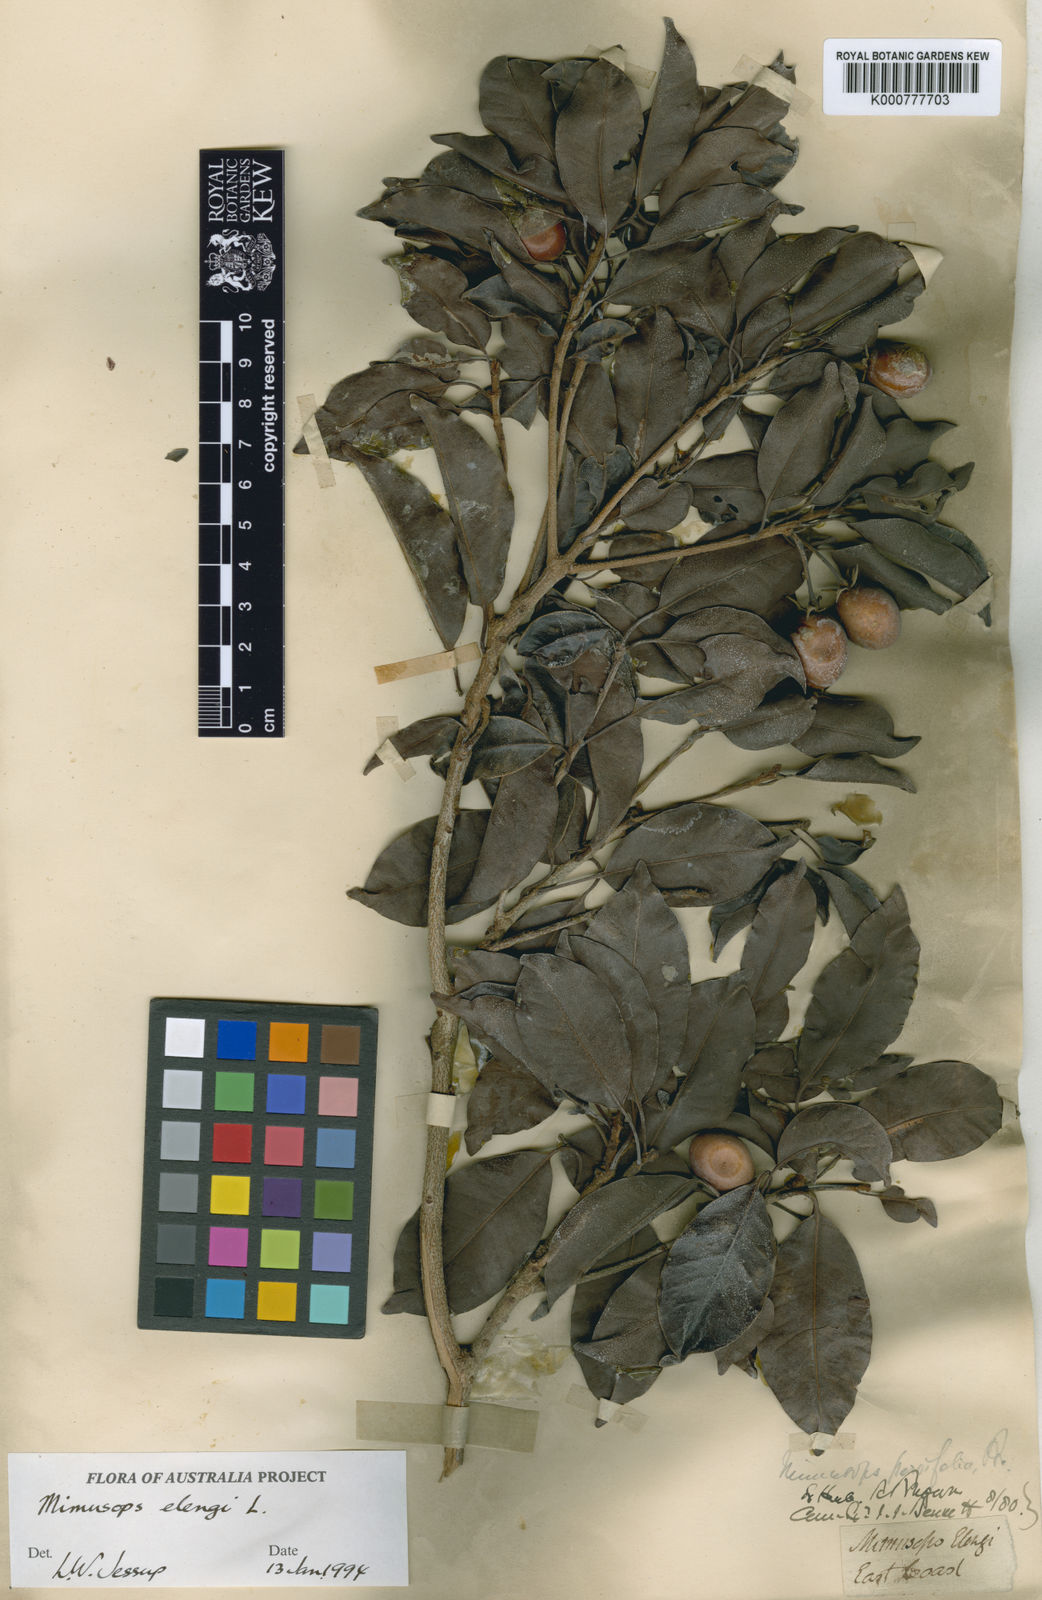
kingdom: Plantae
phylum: Tracheophyta
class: Magnoliopsida
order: Ericales
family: Sapotaceae
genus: Mimusops
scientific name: Mimusops elengi
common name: Spanish cherry
